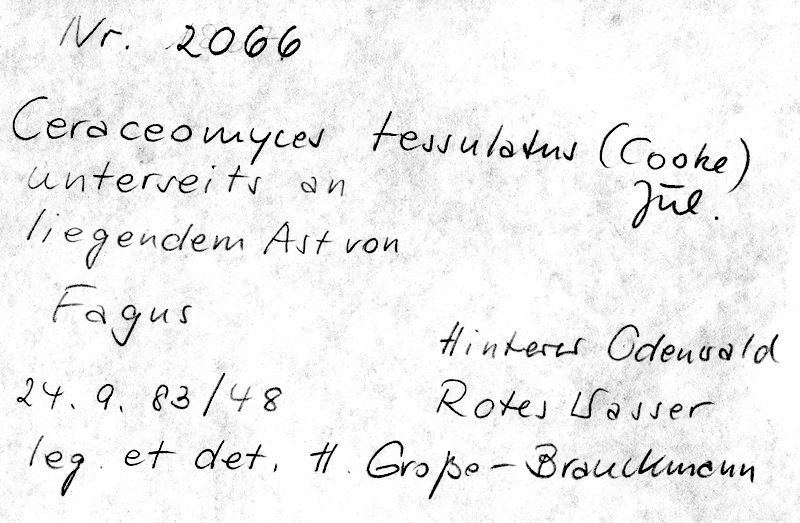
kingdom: Fungi
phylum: Basidiomycota
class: Agaricomycetes
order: Amylocorticiales
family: Amylocorticiaceae
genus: Ceraceomyces
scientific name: Ceraceomyces tessulatus
